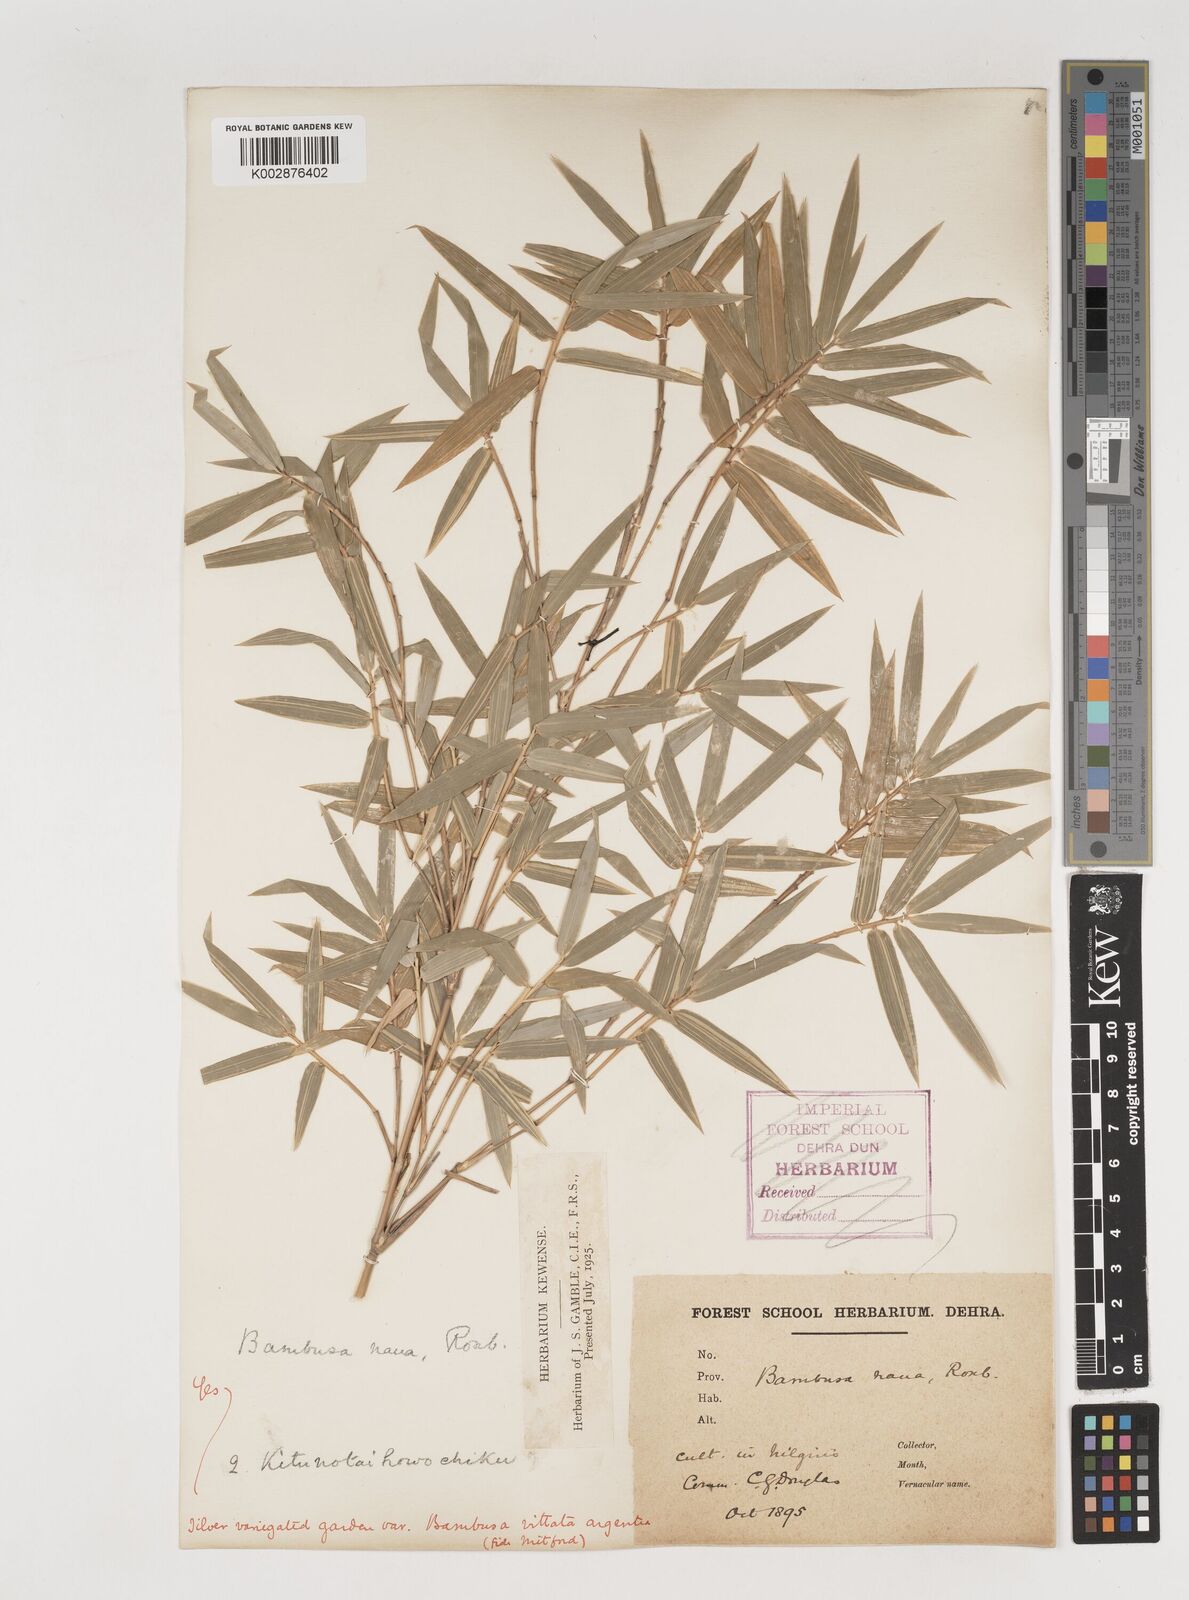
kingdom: Plantae
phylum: Tracheophyta
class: Liliopsida
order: Poales
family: Poaceae
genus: Bambusa
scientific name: Bambusa multiplex
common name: Hedge bamboo
